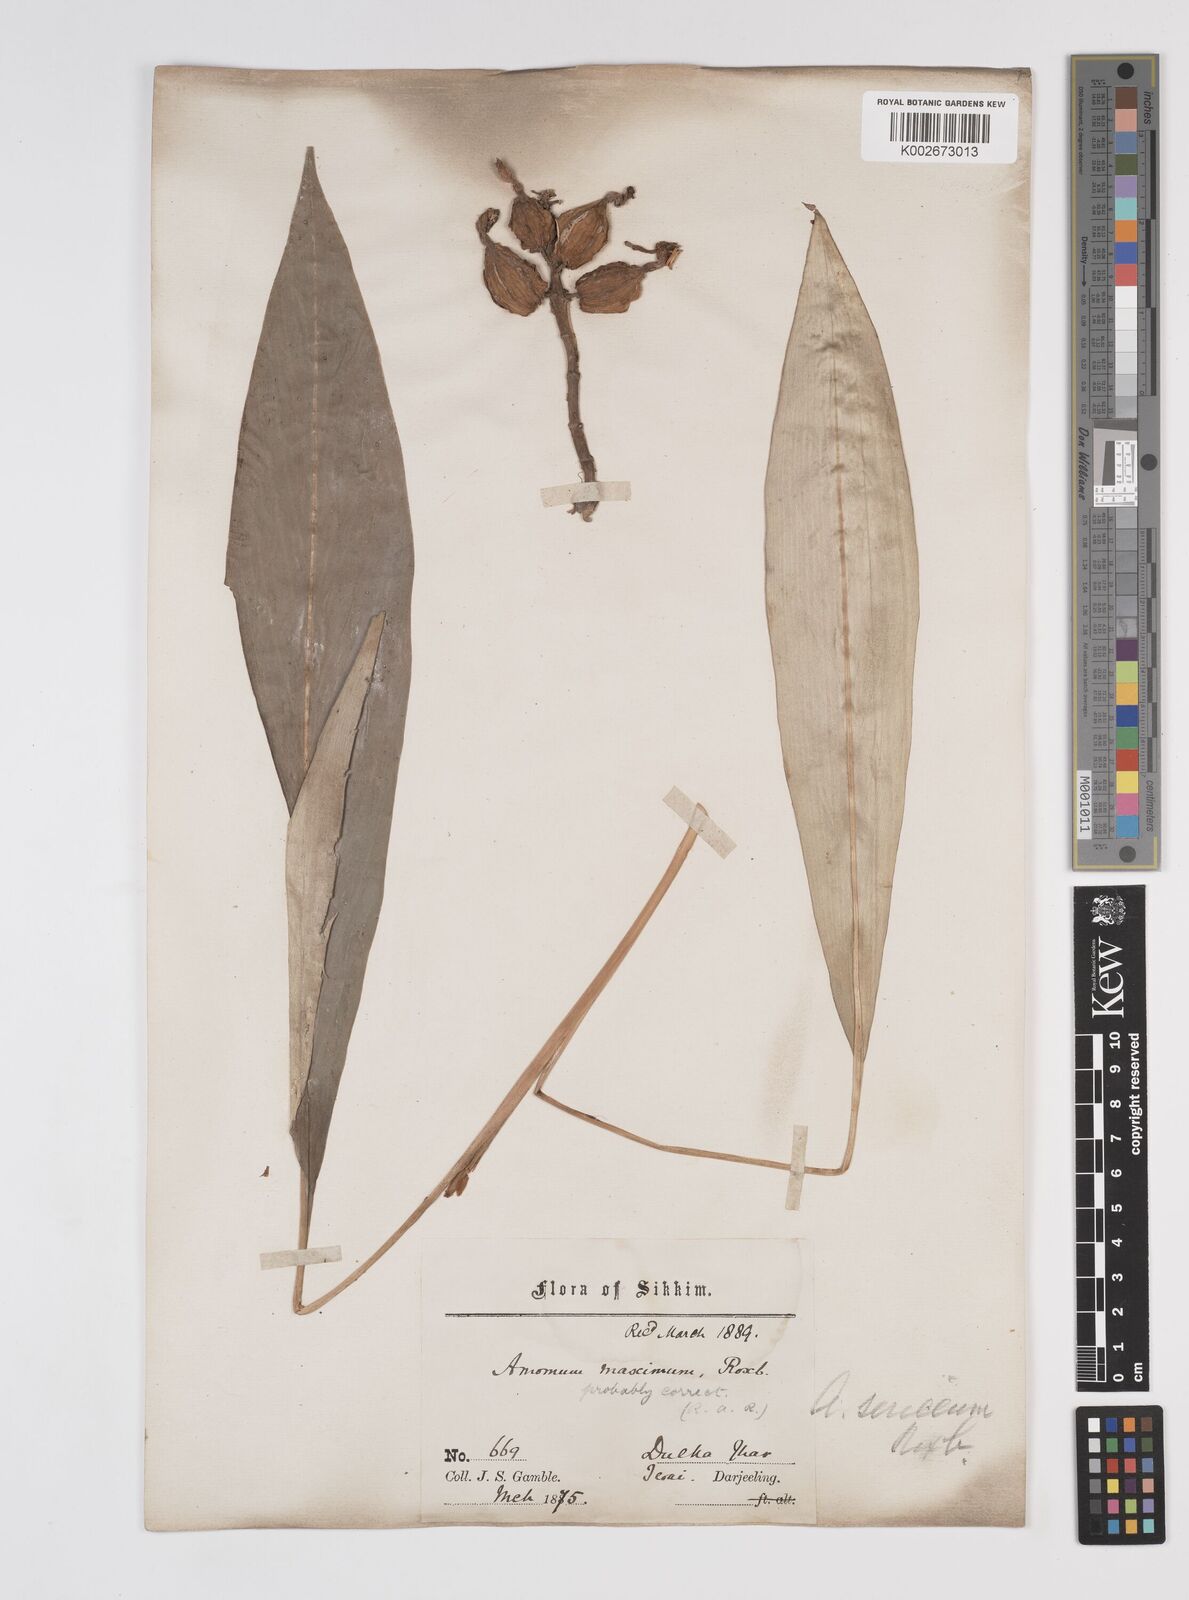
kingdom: Plantae
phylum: Tracheophyta
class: Liliopsida
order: Zingiberales
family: Zingiberaceae
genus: Amomum
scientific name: Amomum dealbatum
